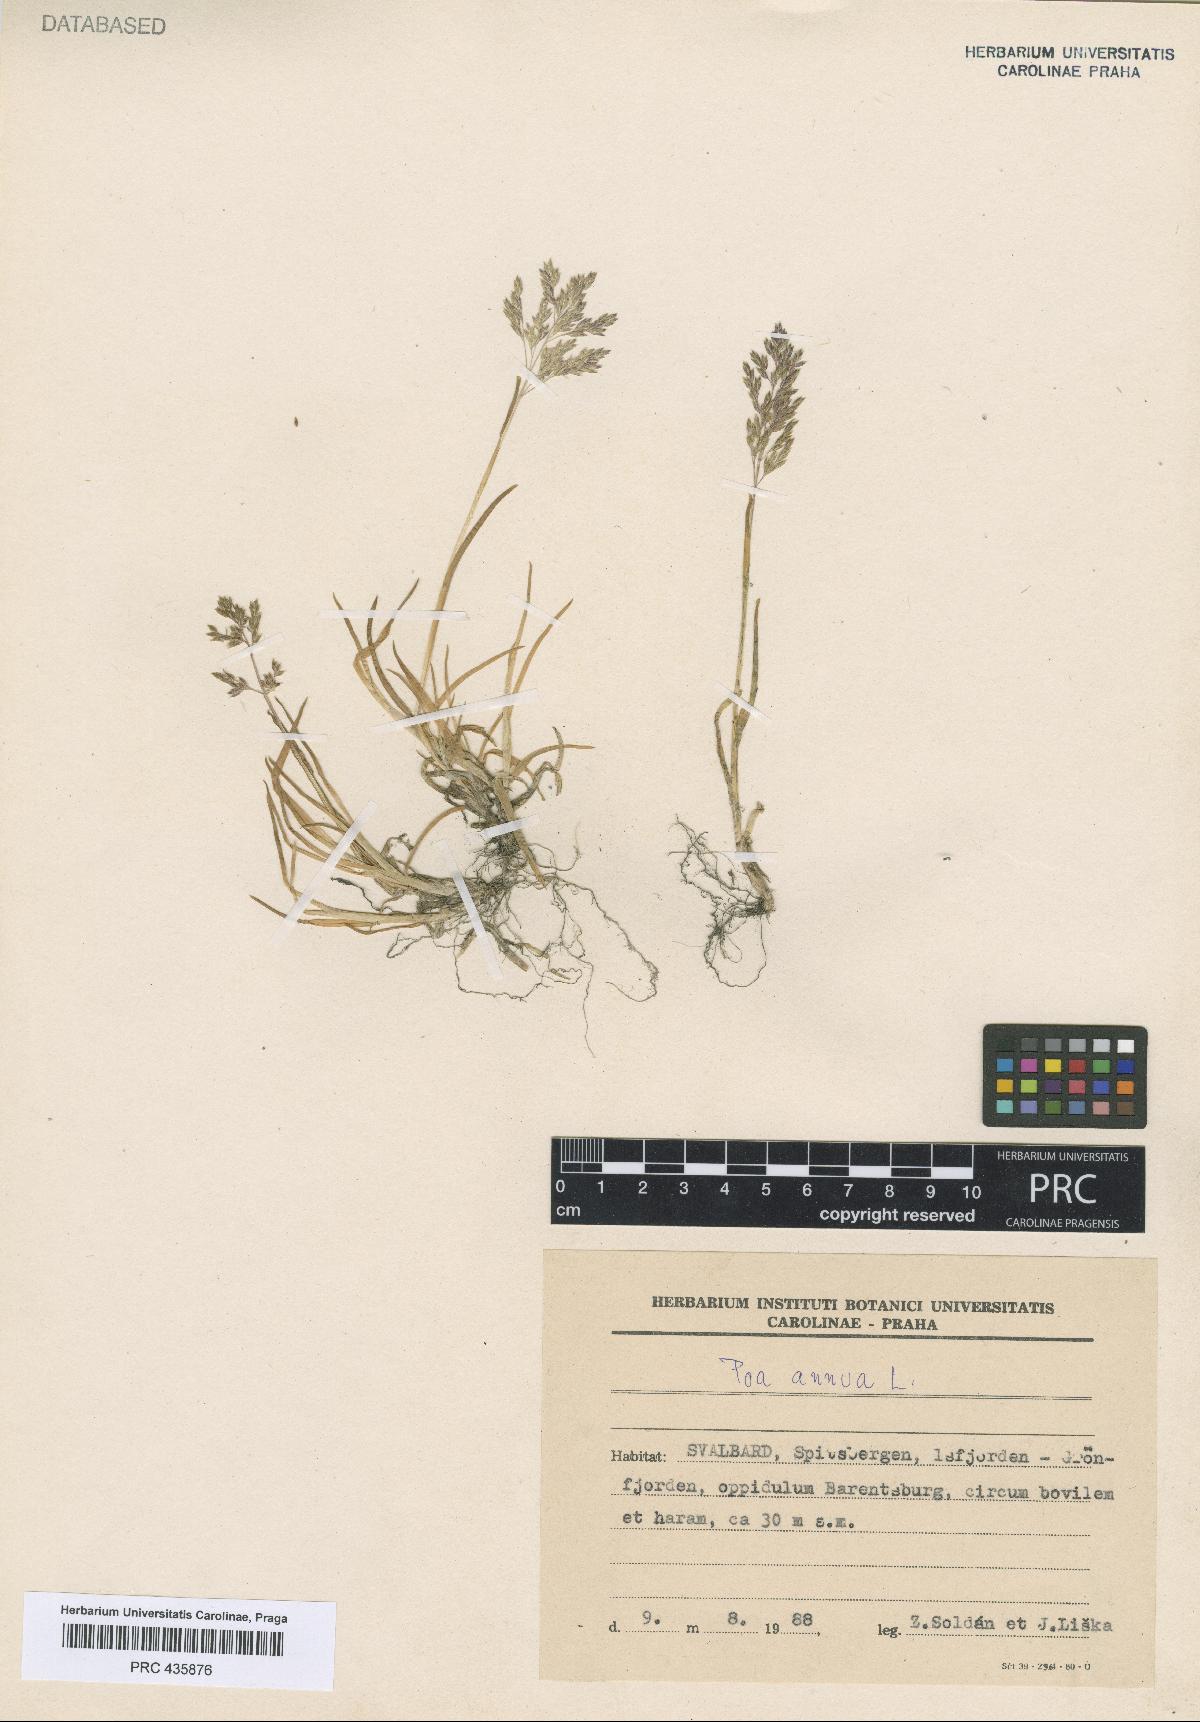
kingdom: Plantae
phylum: Tracheophyta
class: Liliopsida
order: Poales
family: Poaceae
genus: Poa
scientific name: Poa annua
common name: Annual bluegrass
